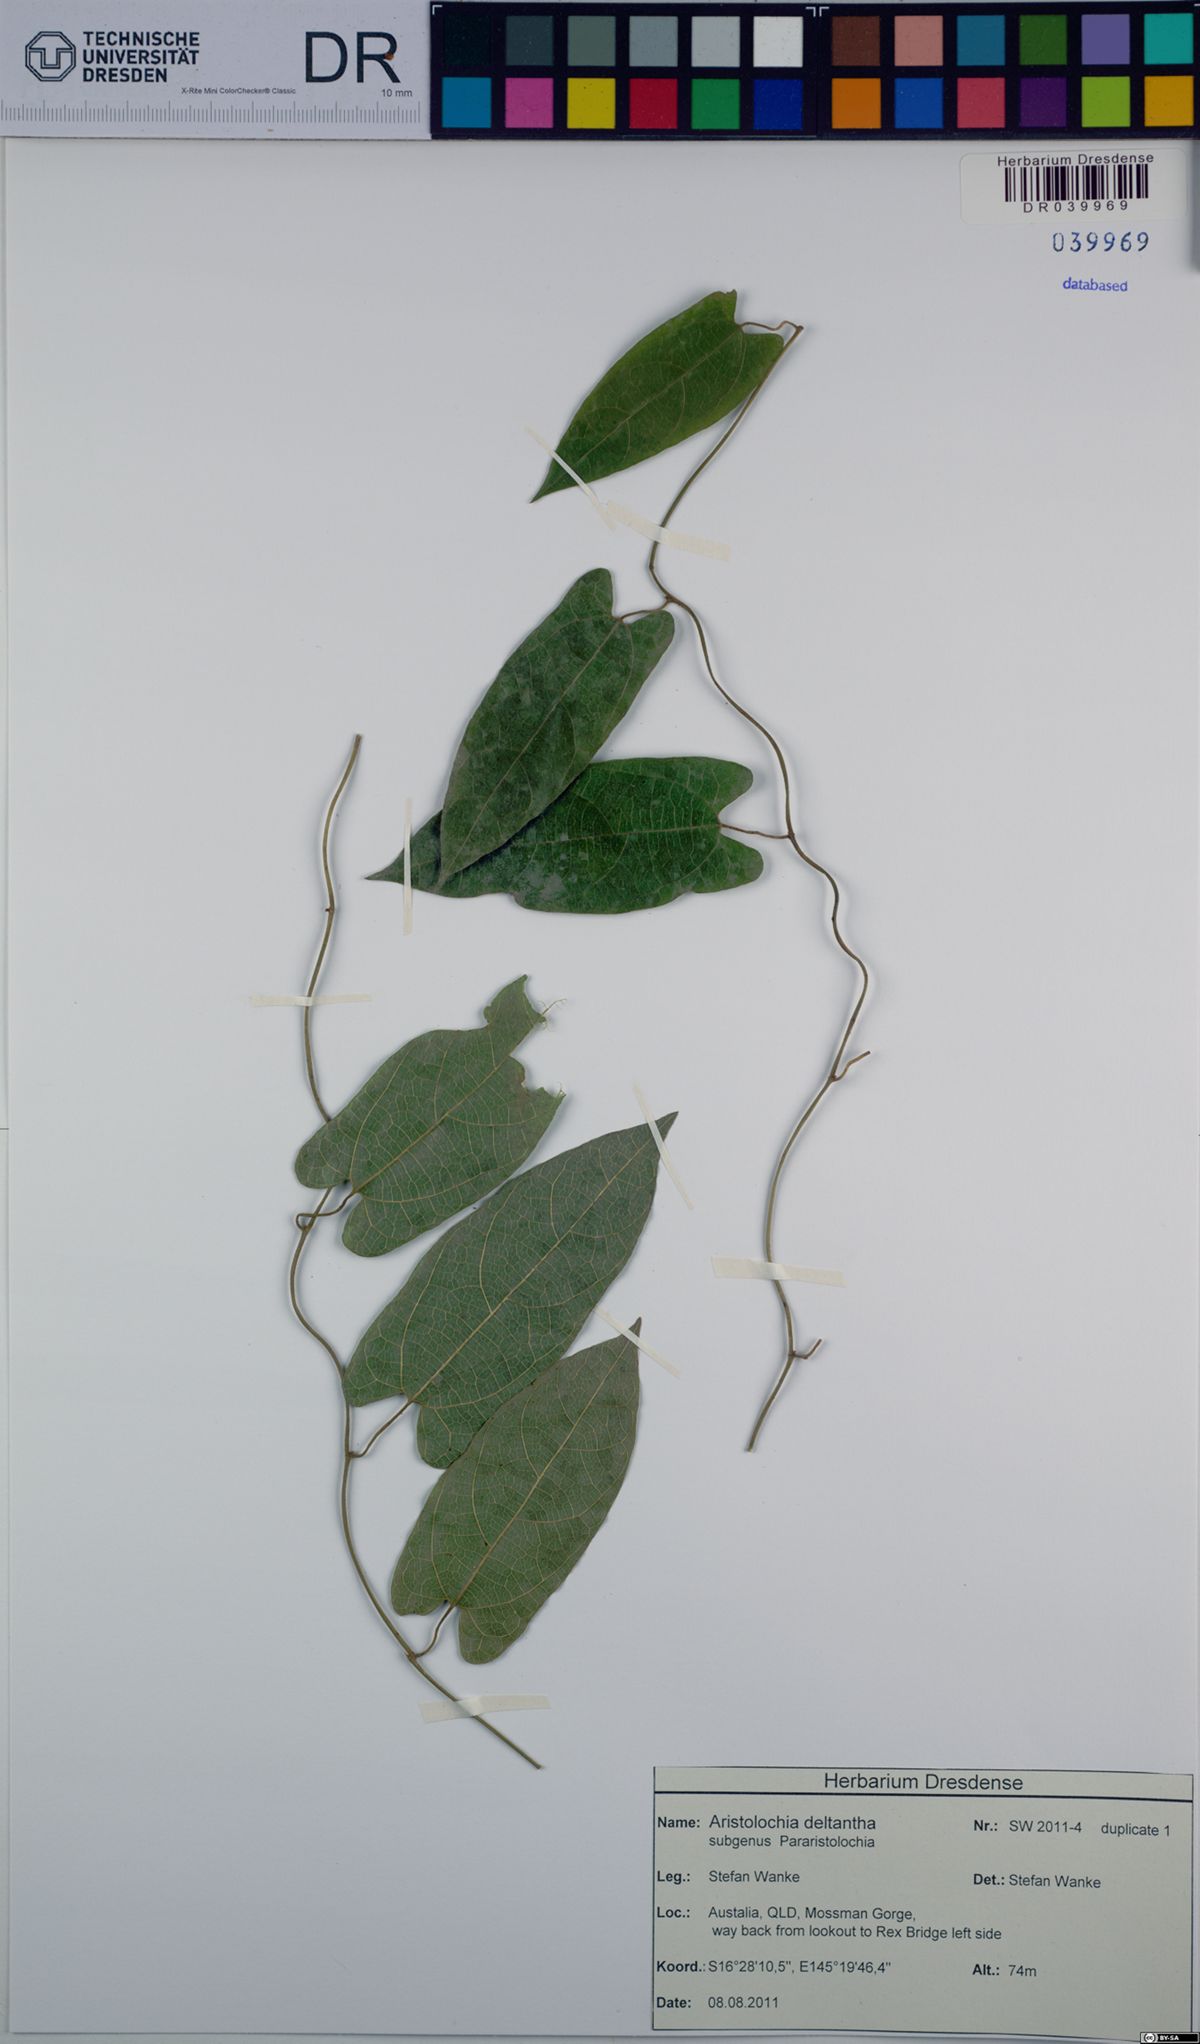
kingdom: Plantae
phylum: Tracheophyta
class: Magnoliopsida
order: Piperales
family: Aristolochiaceae
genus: Aristolochia
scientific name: Aristolochia deltantha
